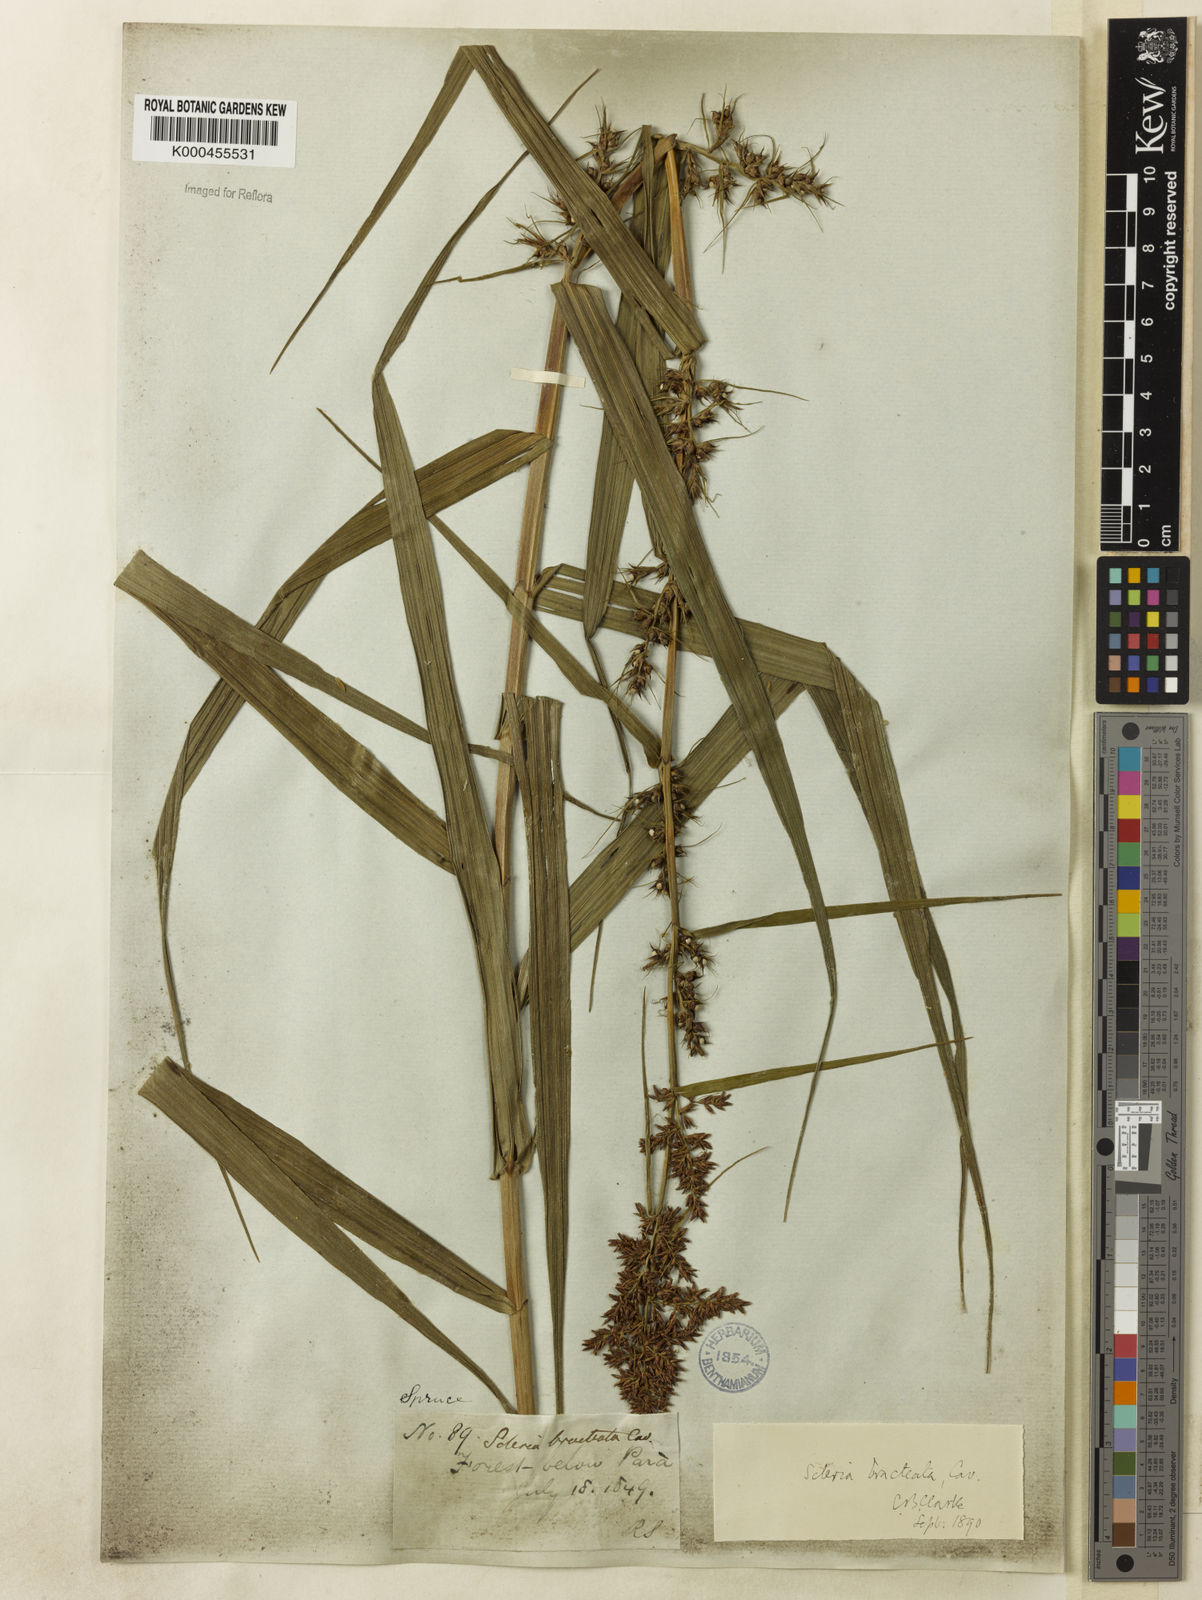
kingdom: Plantae
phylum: Tracheophyta
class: Liliopsida
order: Poales
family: Cyperaceae
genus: Scleria
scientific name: Scleria bracteata
